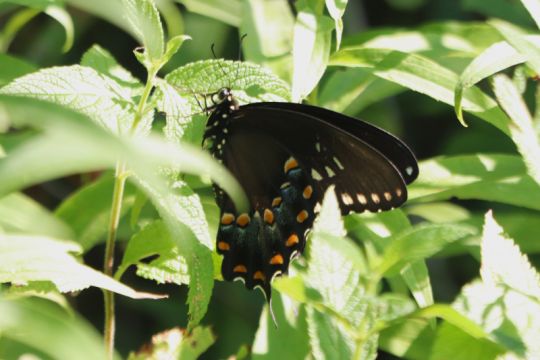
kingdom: Animalia
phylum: Arthropoda
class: Insecta
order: Lepidoptera
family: Papilionidae
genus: Pterourus
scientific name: Pterourus troilus
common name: Spicebush Swallowtail
